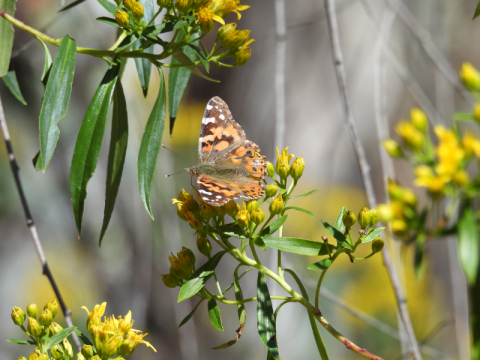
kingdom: Animalia
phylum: Arthropoda
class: Insecta
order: Lepidoptera
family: Nymphalidae
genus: Vanessa
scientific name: Vanessa cardui
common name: Painted Lady
